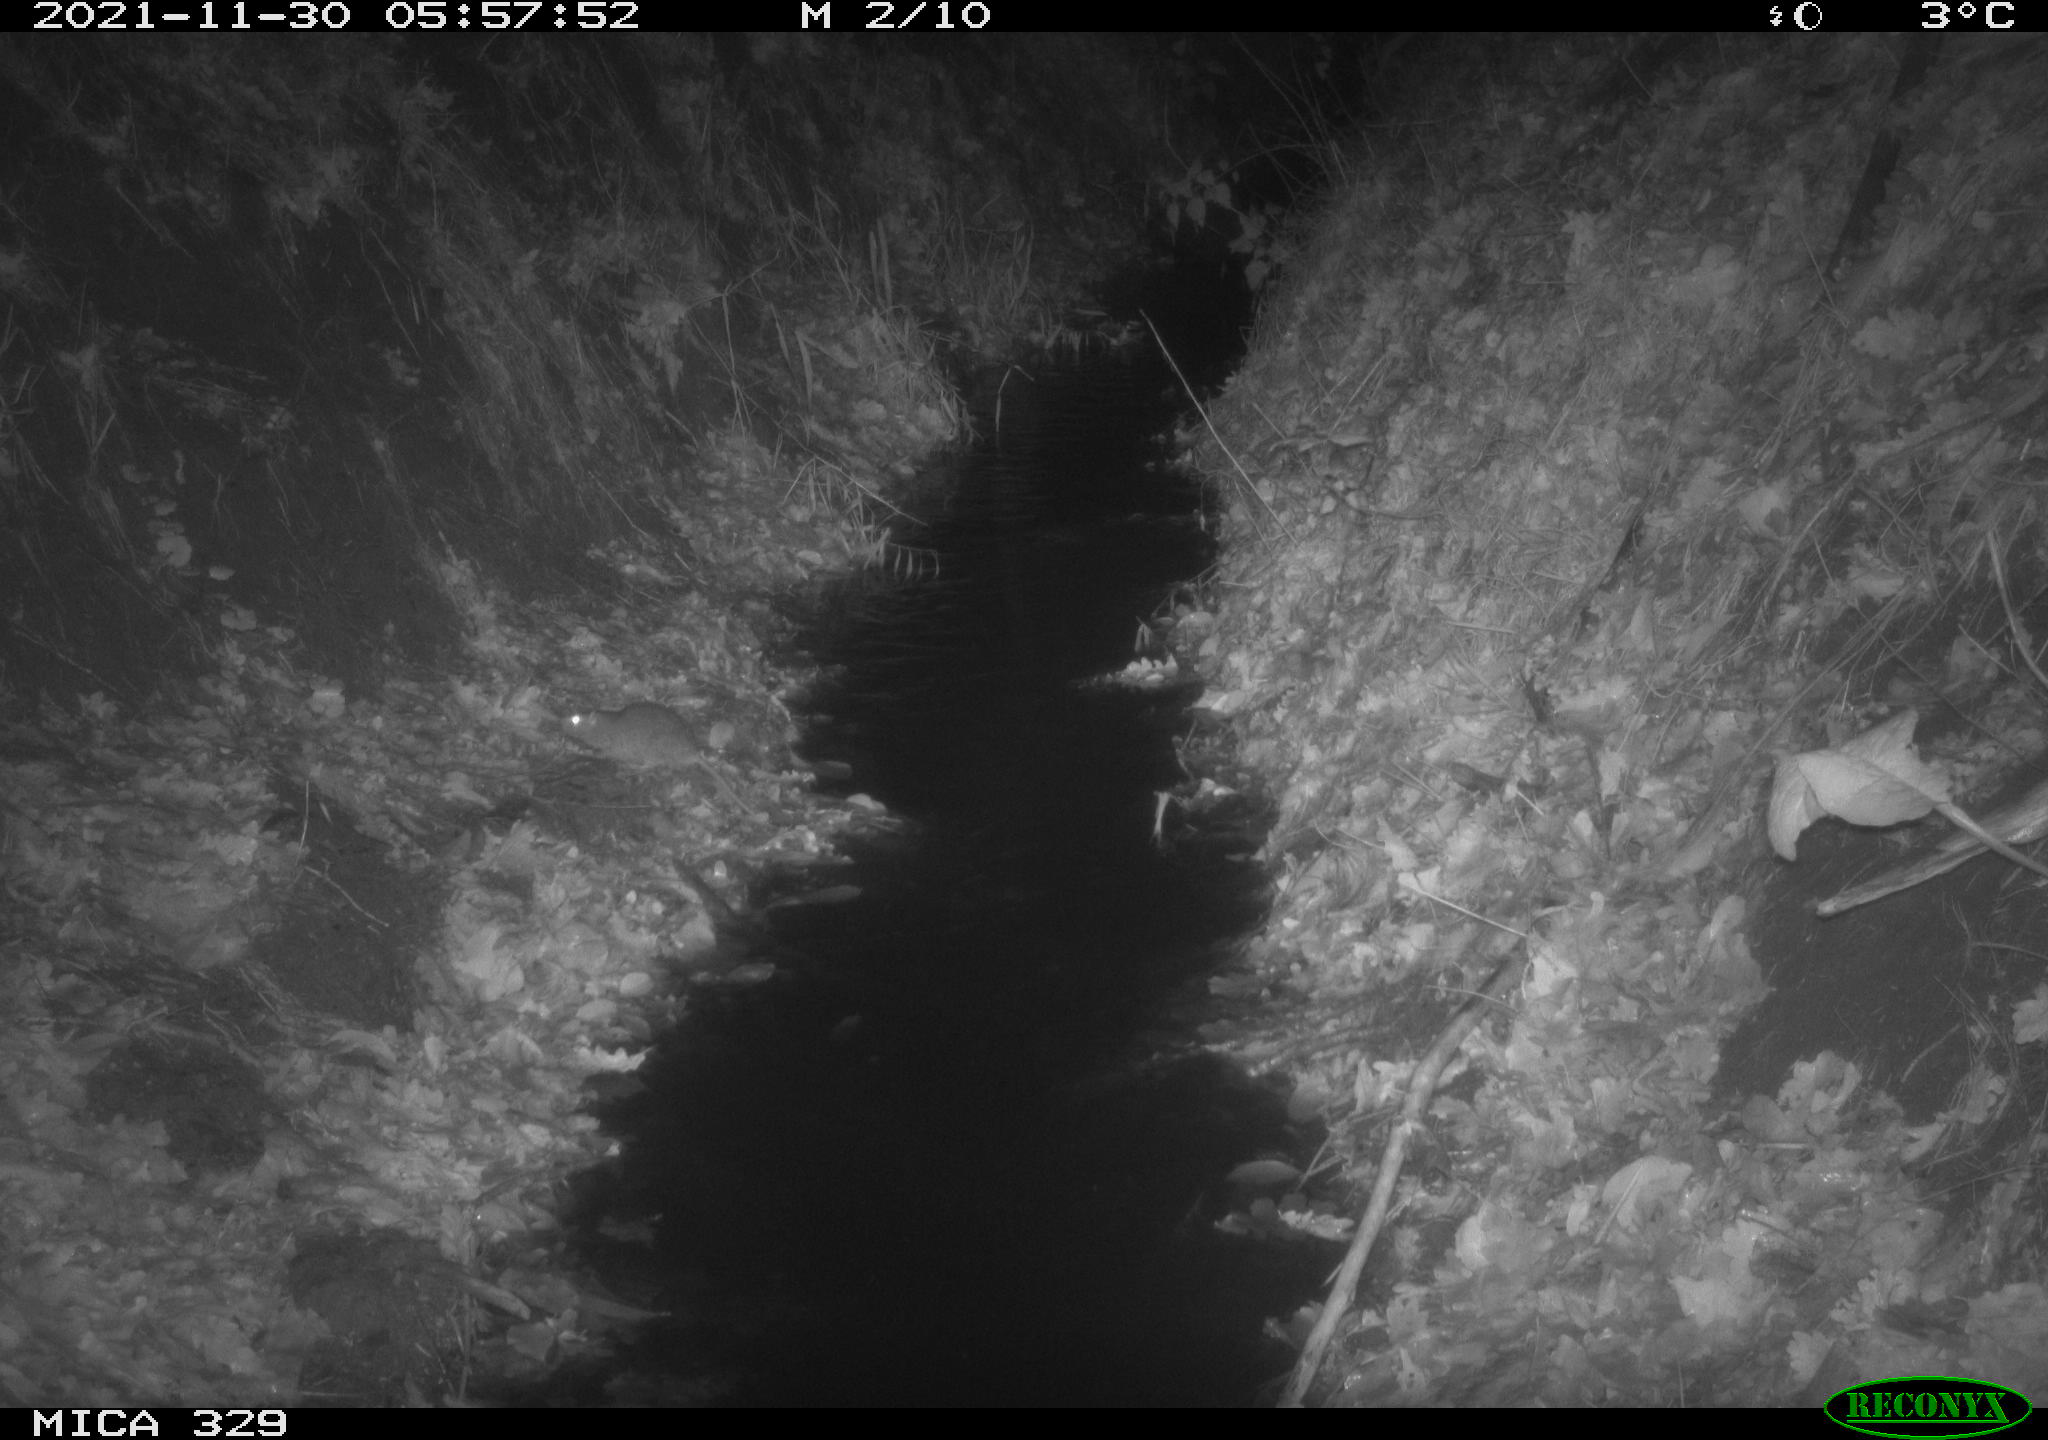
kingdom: Animalia
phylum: Chordata
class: Mammalia
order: Rodentia
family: Muridae
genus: Rattus
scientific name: Rattus norvegicus
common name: Brown rat
